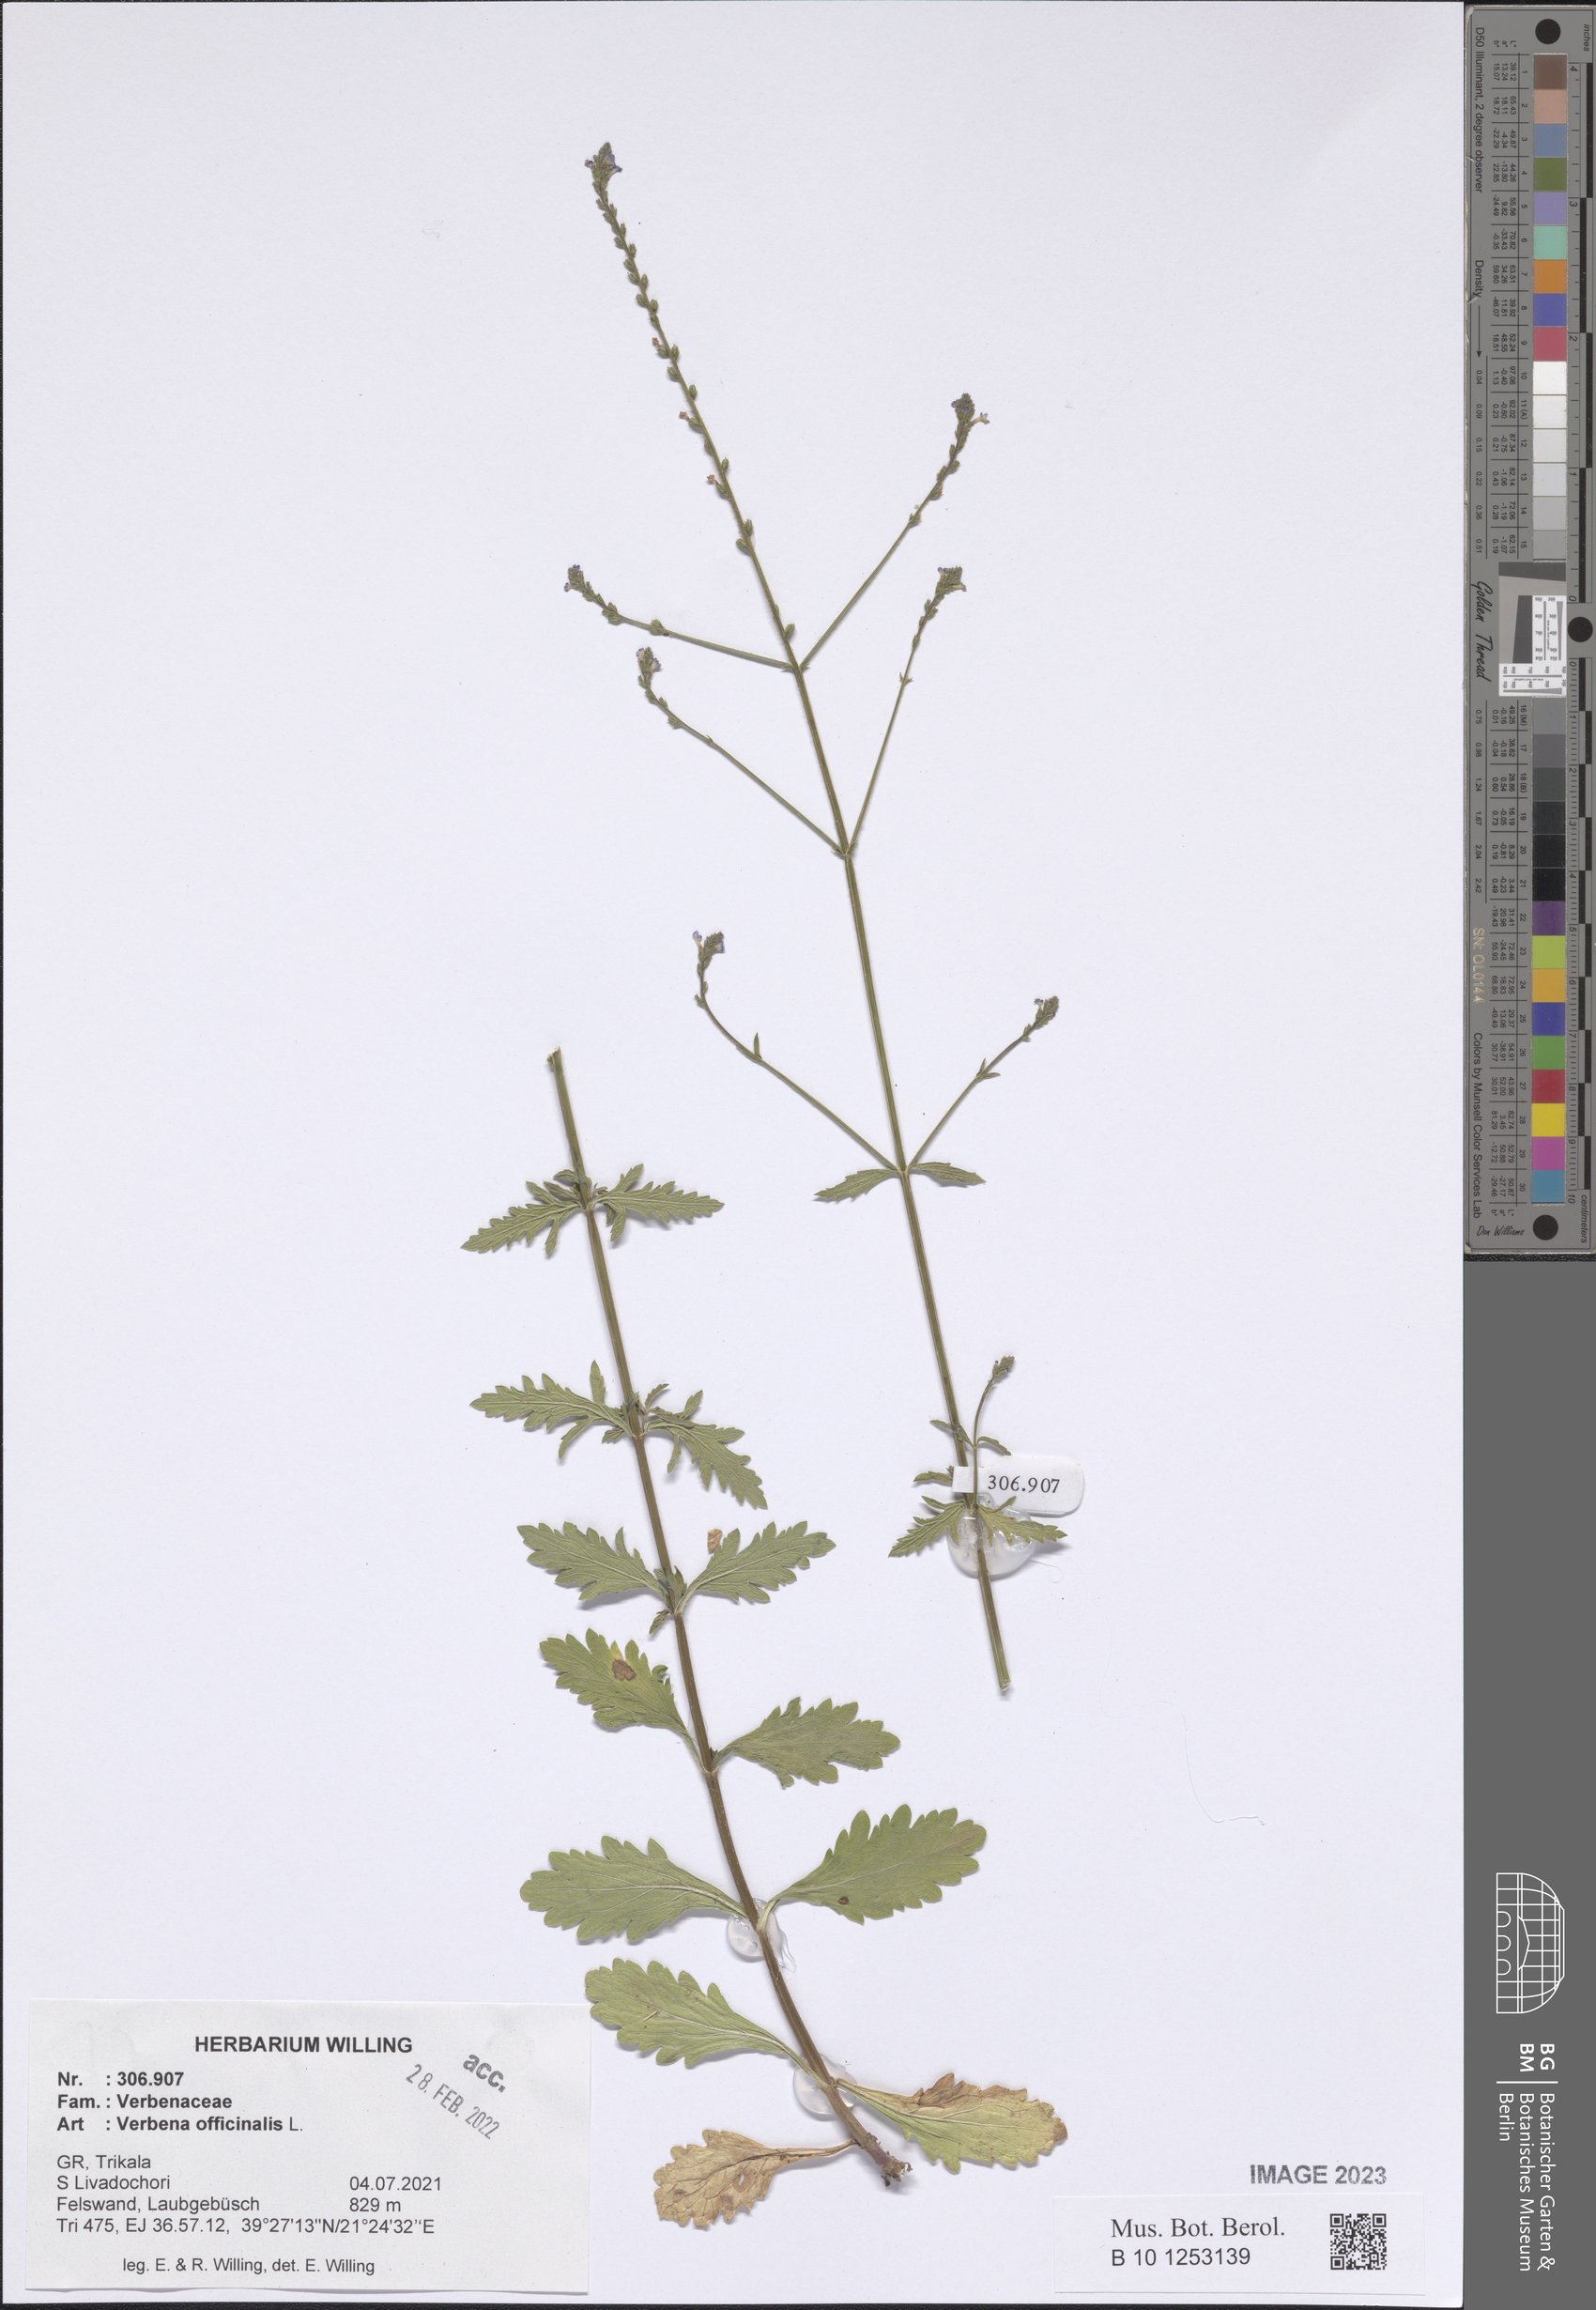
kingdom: Plantae
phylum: Tracheophyta
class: Magnoliopsida
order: Lamiales
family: Verbenaceae
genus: Verbena
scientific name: Verbena officinalis
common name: Vervain
